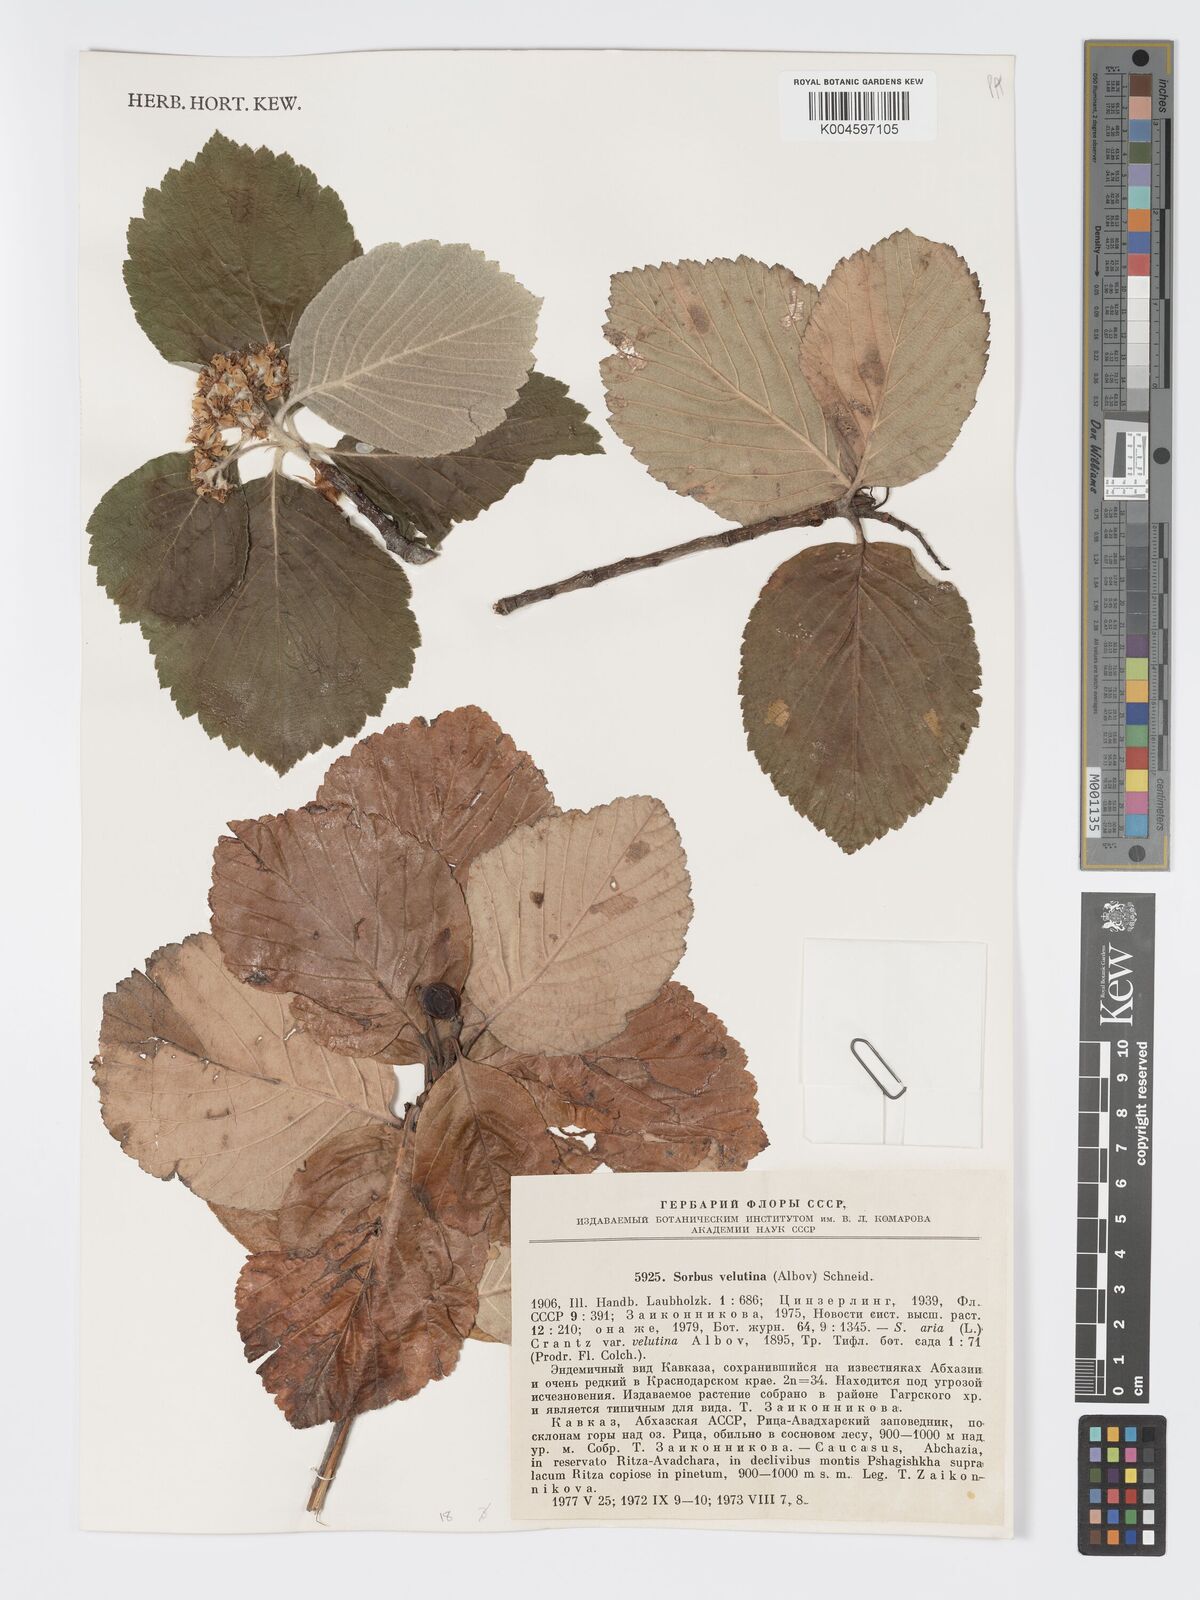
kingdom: Plantae
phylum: Tracheophyta
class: Magnoliopsida
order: Rosales
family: Rosaceae
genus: Sorbus
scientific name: Sorbus subfusca
